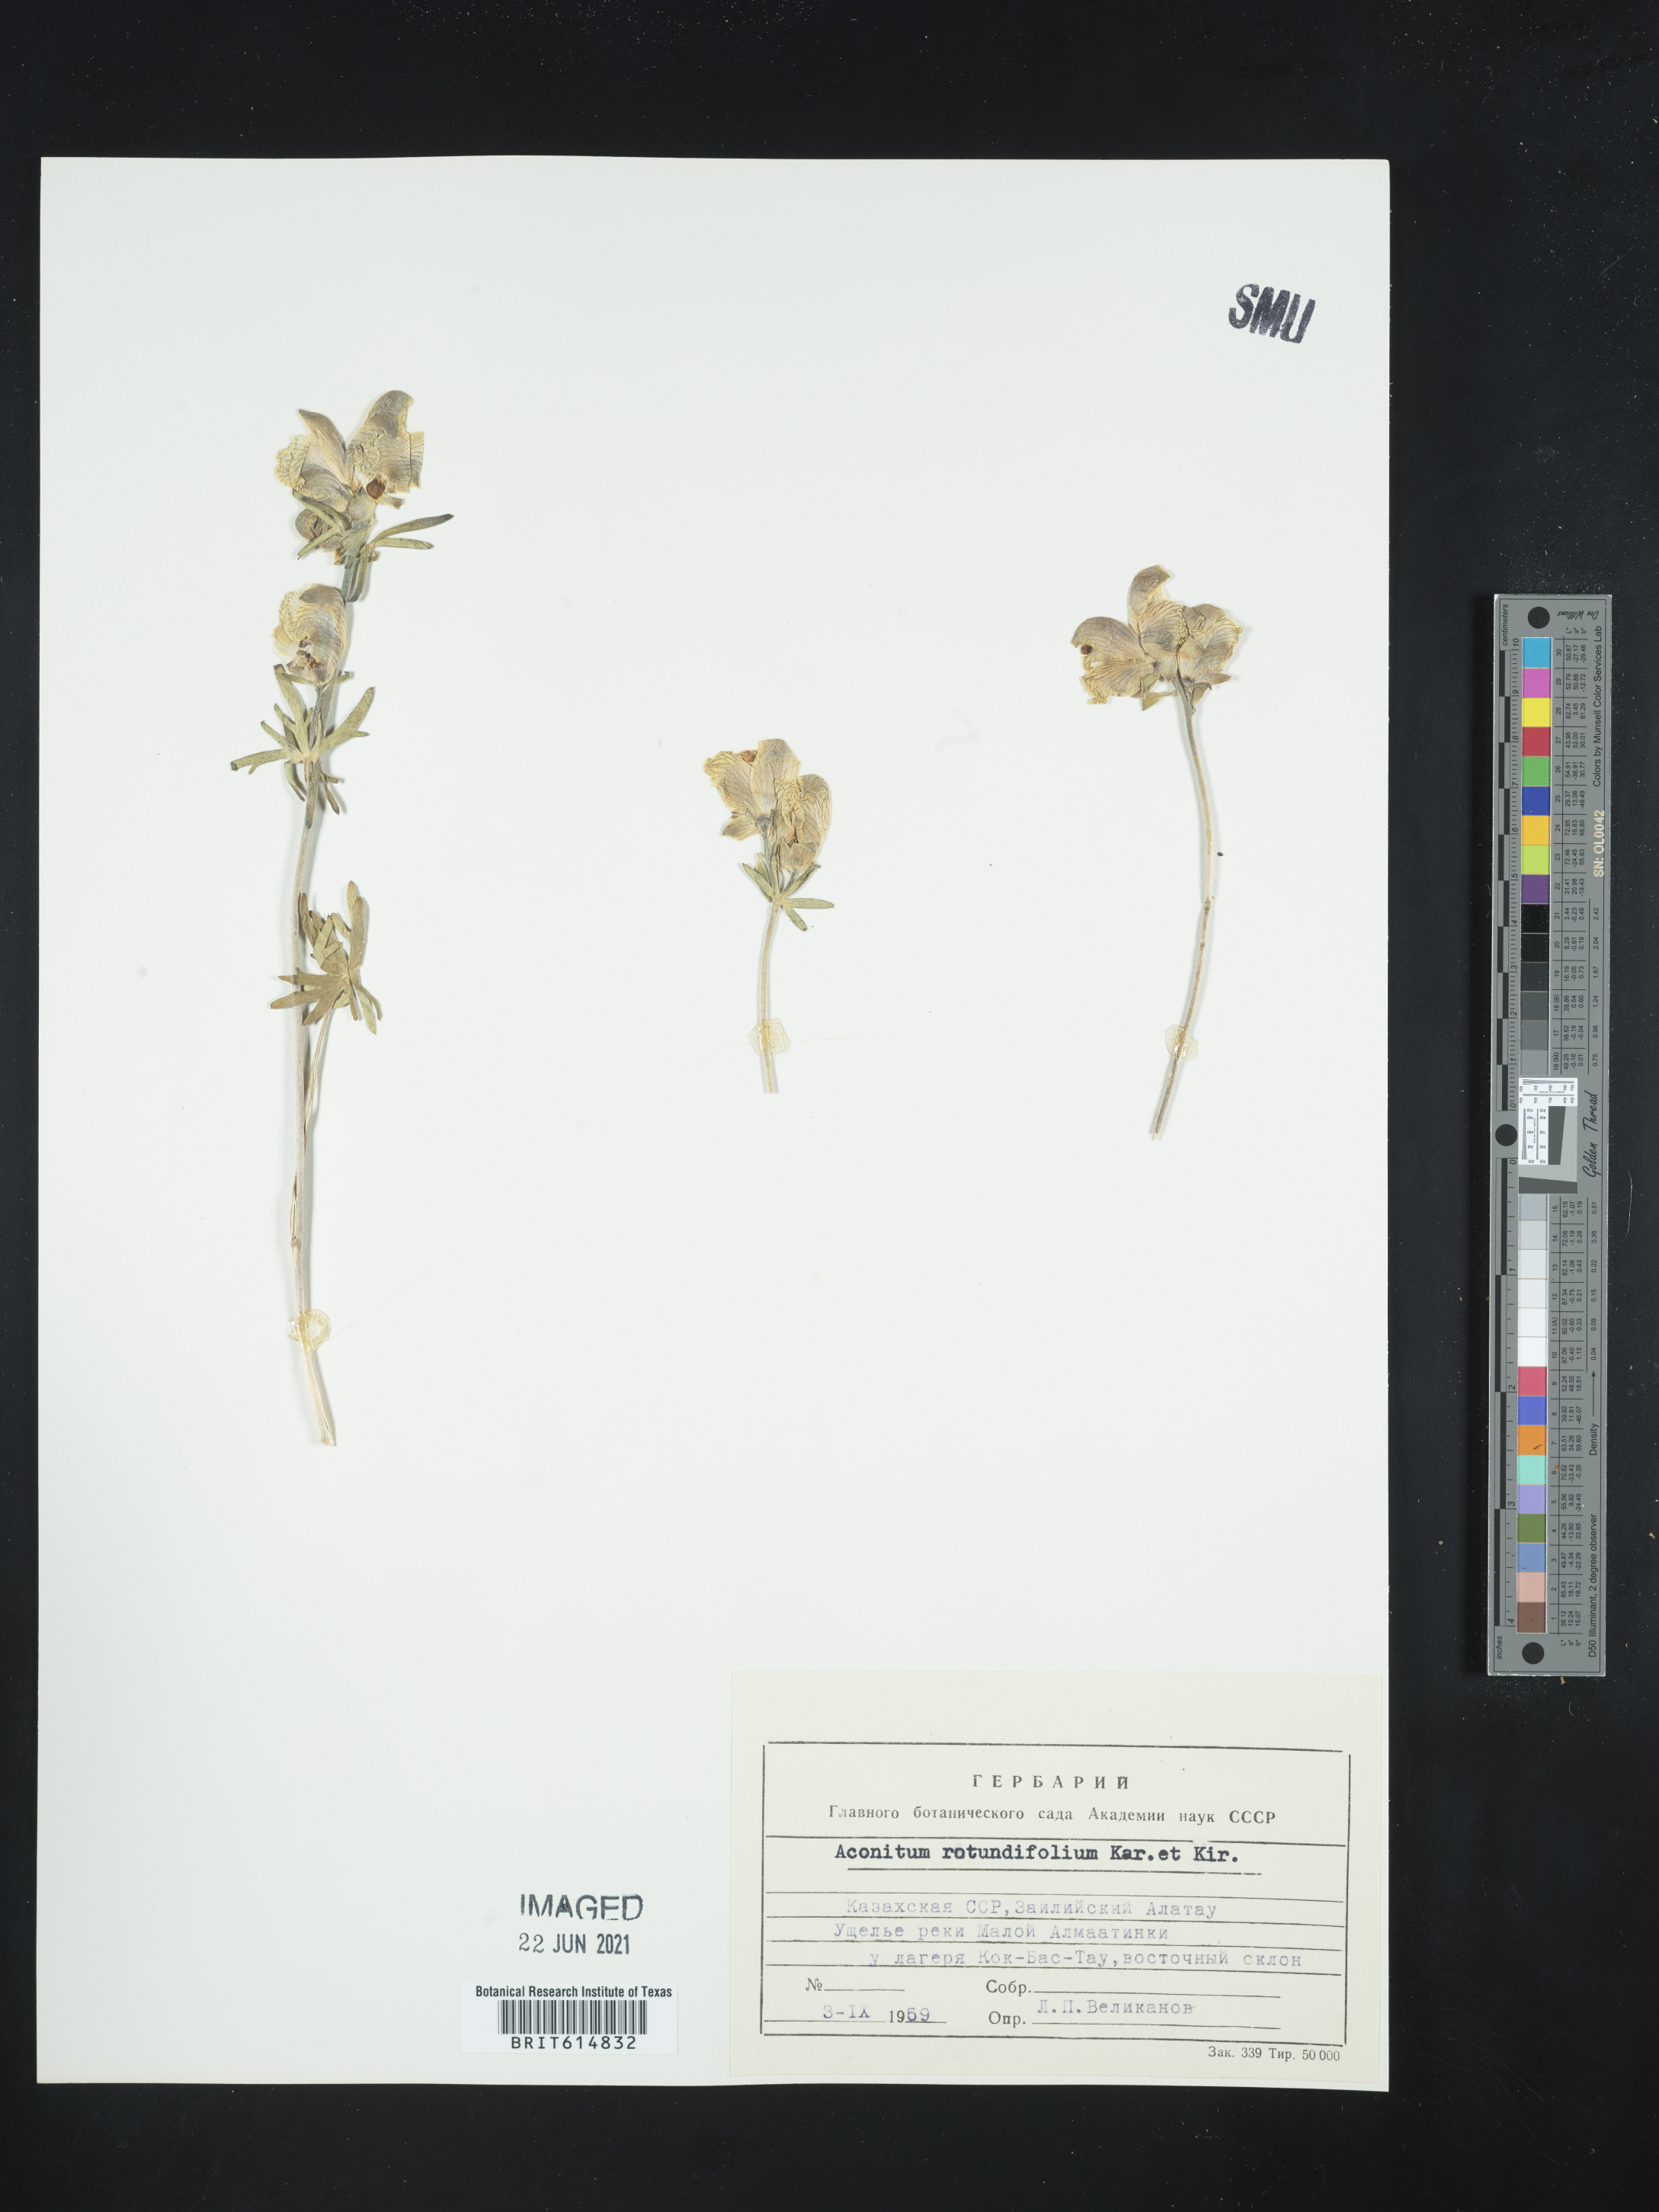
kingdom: Plantae
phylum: Tracheophyta
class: Magnoliopsida
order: Ranunculales
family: Ranunculaceae
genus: Aconitum
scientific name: Aconitum rotundifolium
